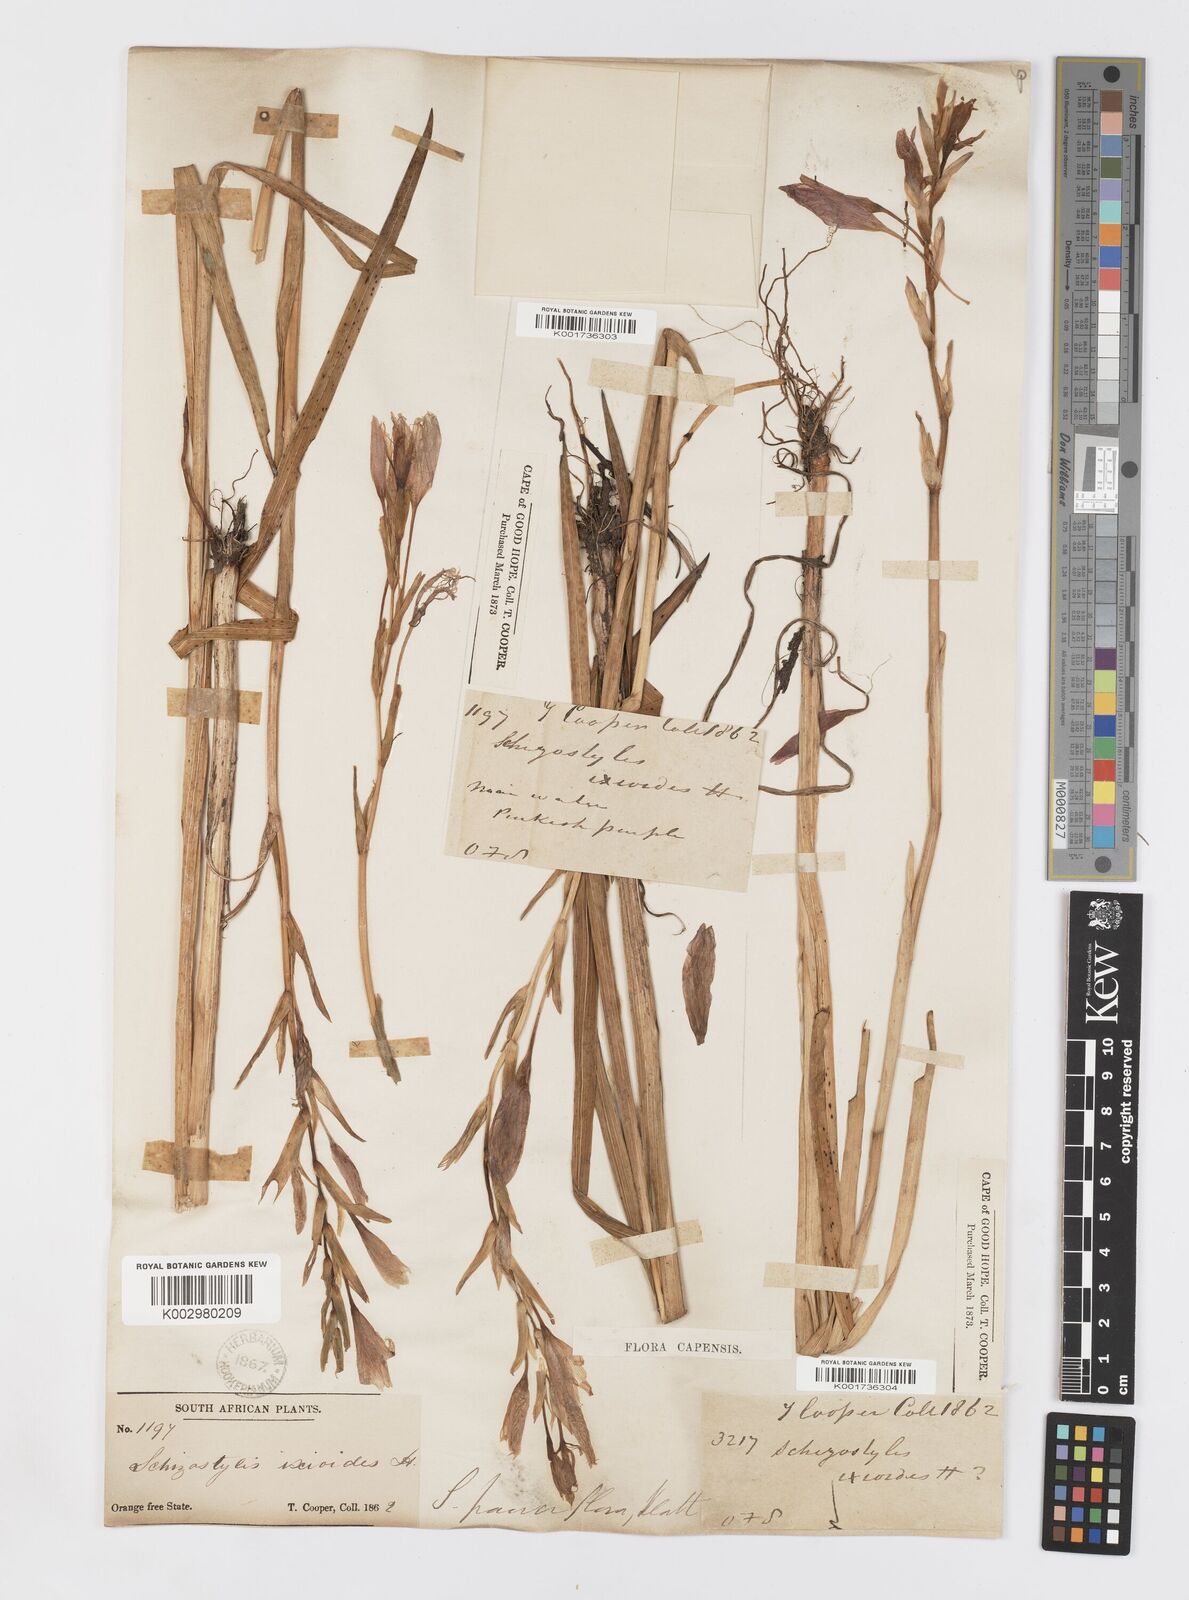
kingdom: Plantae
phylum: Tracheophyta
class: Liliopsida
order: Asparagales
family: Iridaceae
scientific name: Iridaceae
